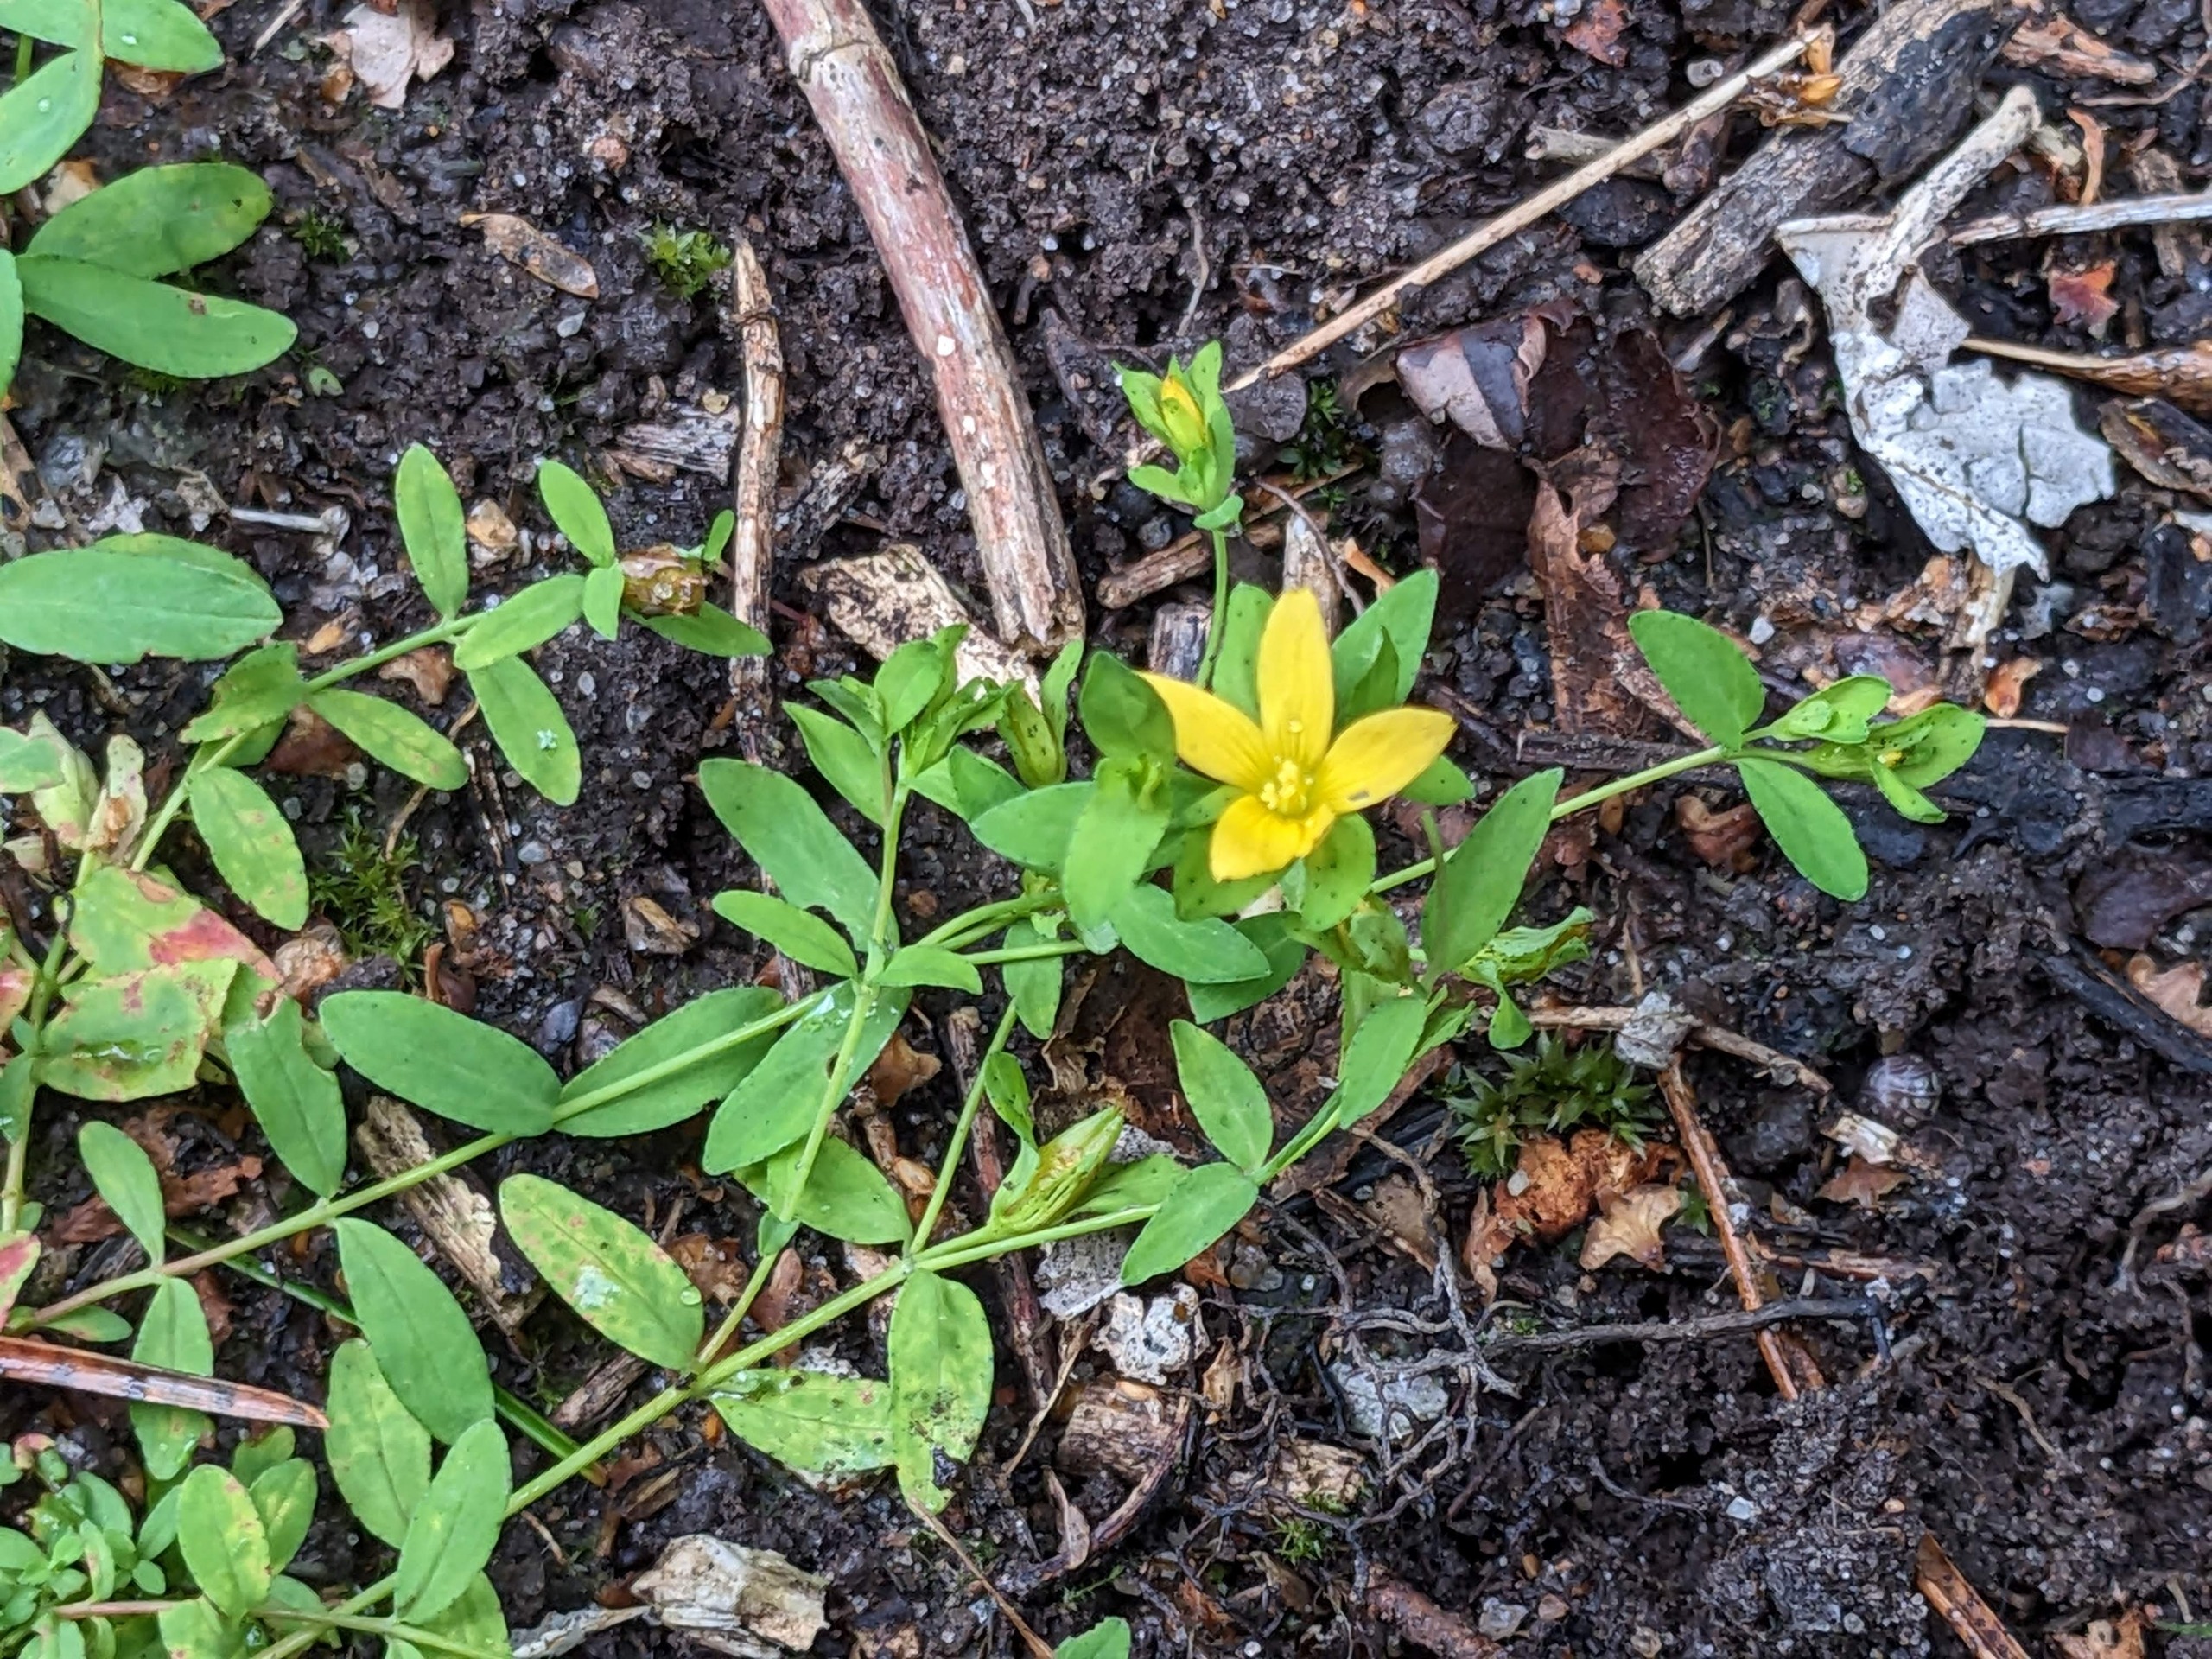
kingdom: Plantae
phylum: Tracheophyta
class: Magnoliopsida
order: Malpighiales
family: Hypericaceae
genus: Hypericum
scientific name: Hypericum humifusum
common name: Dværg-perikon
